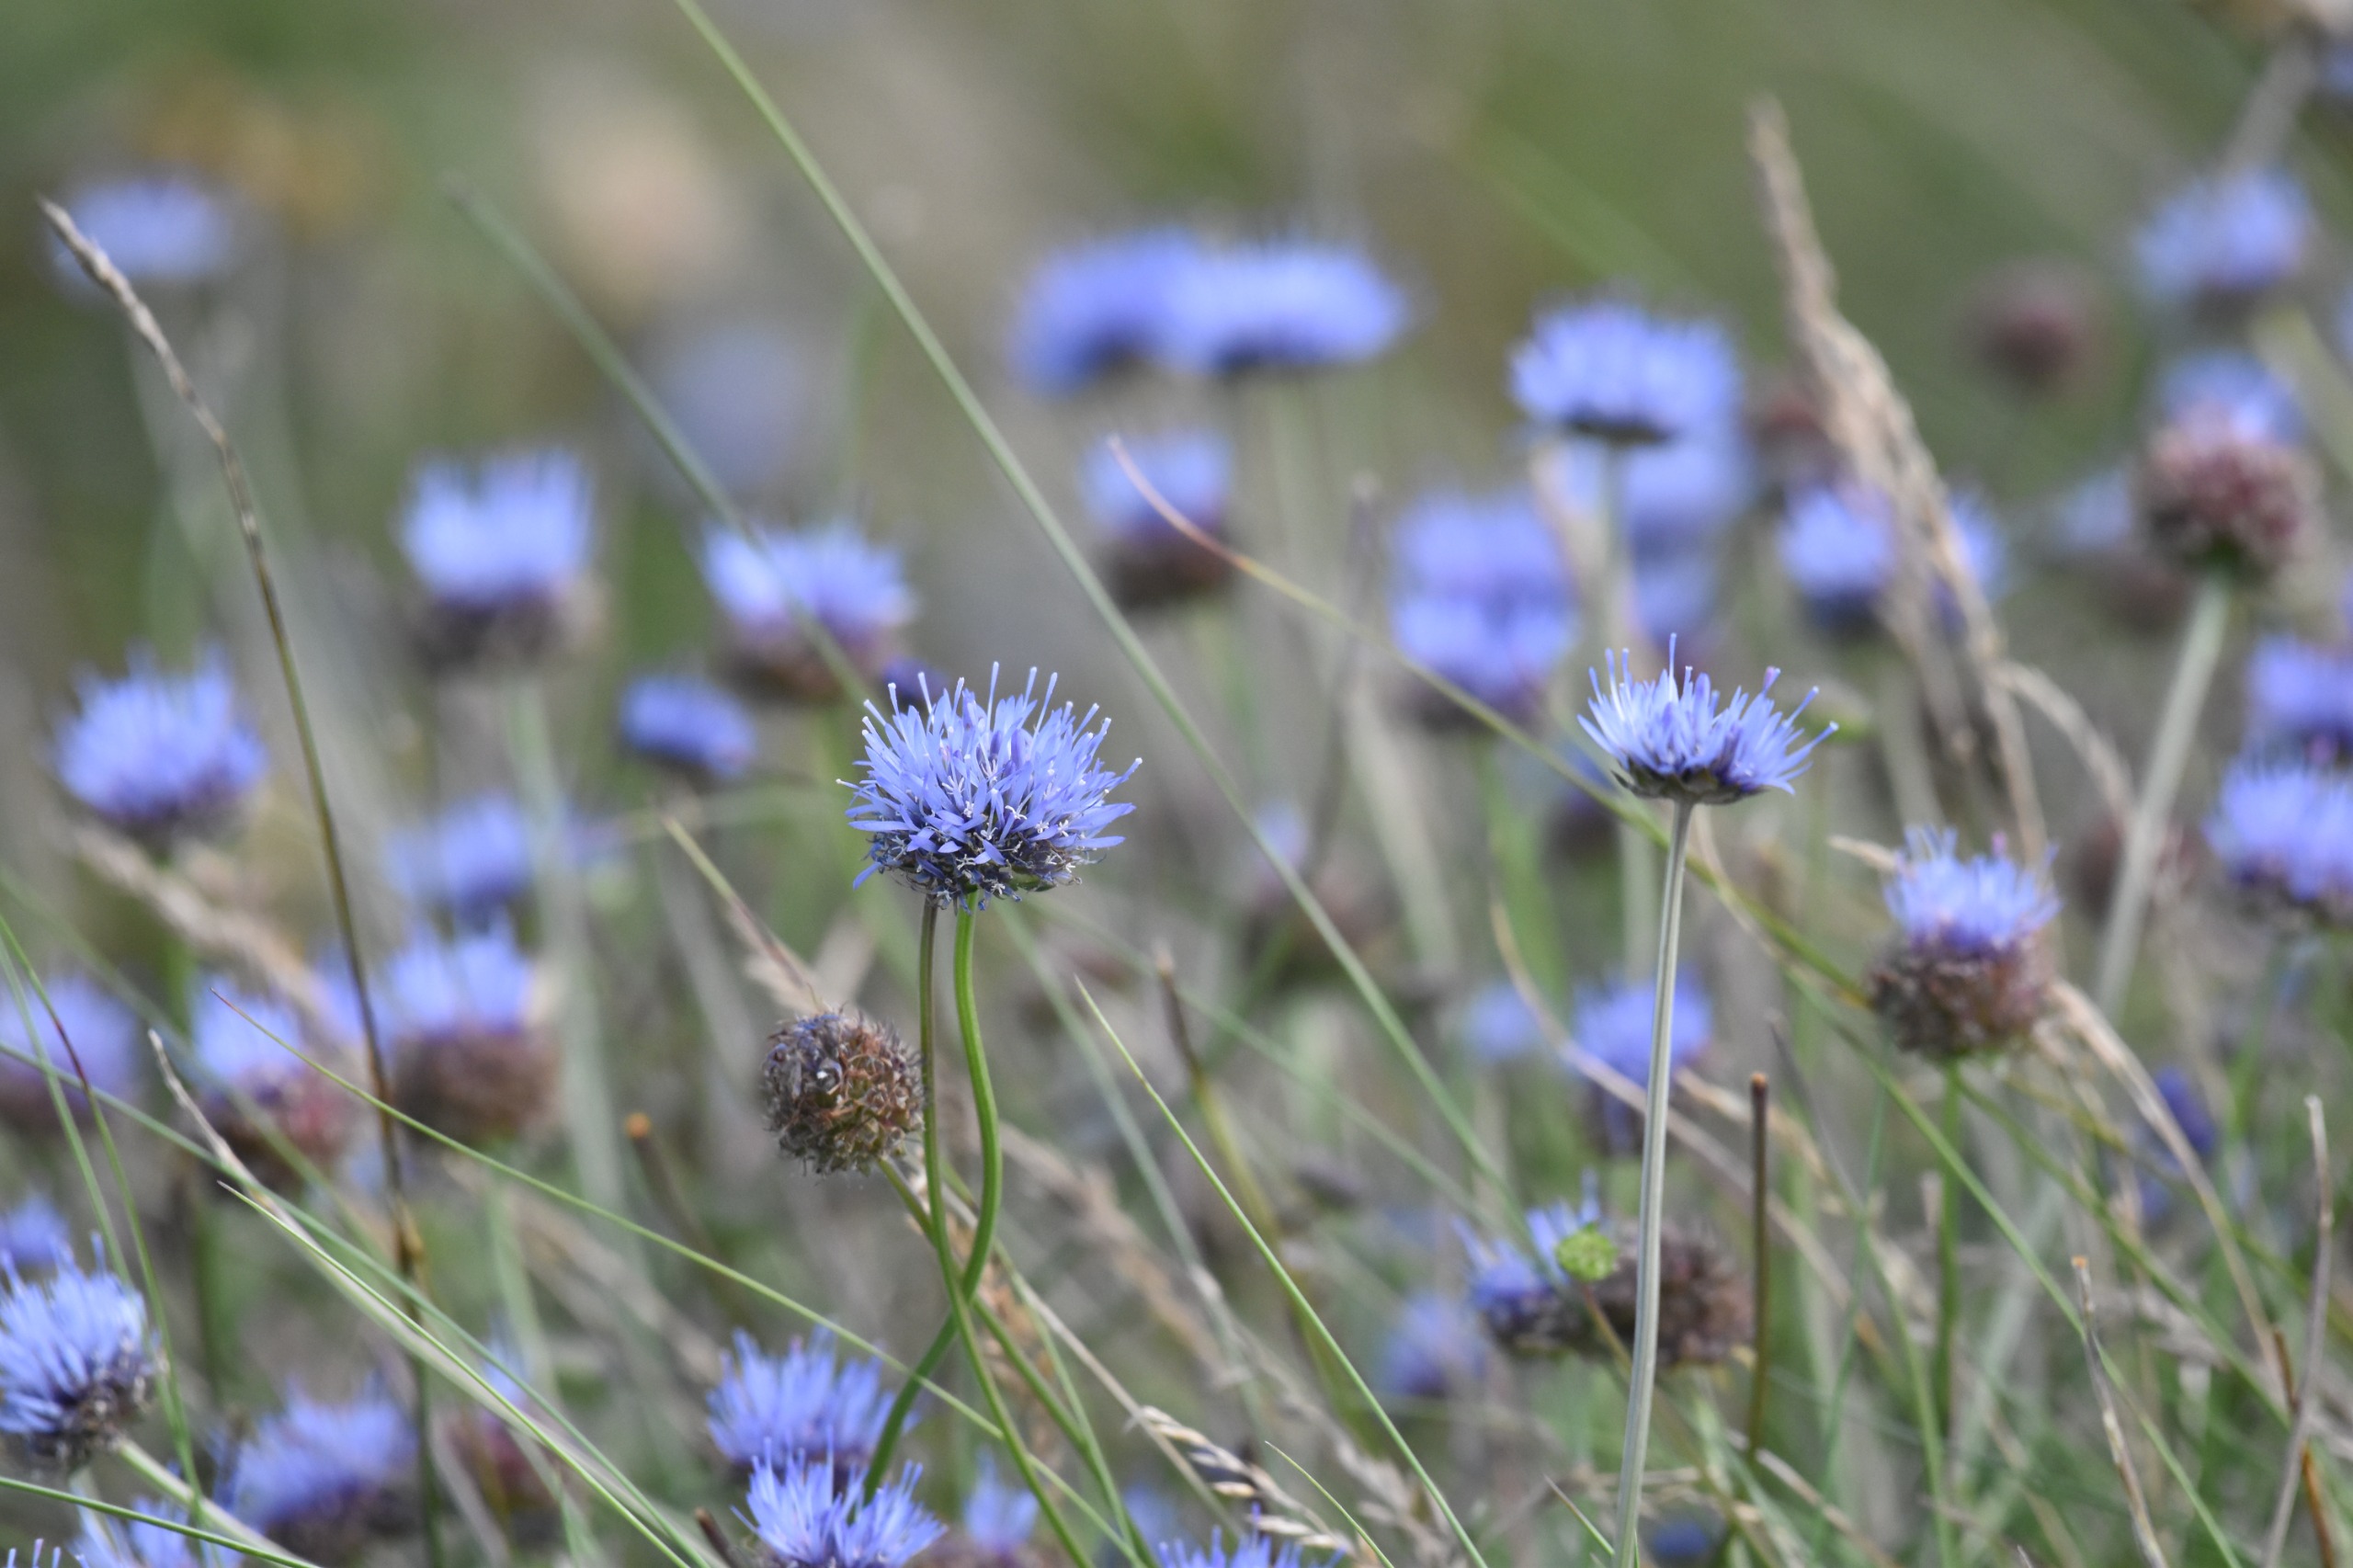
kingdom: Plantae
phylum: Tracheophyta
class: Magnoliopsida
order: Asterales
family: Campanulaceae
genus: Jasione
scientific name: Jasione montana
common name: Blåmunke
